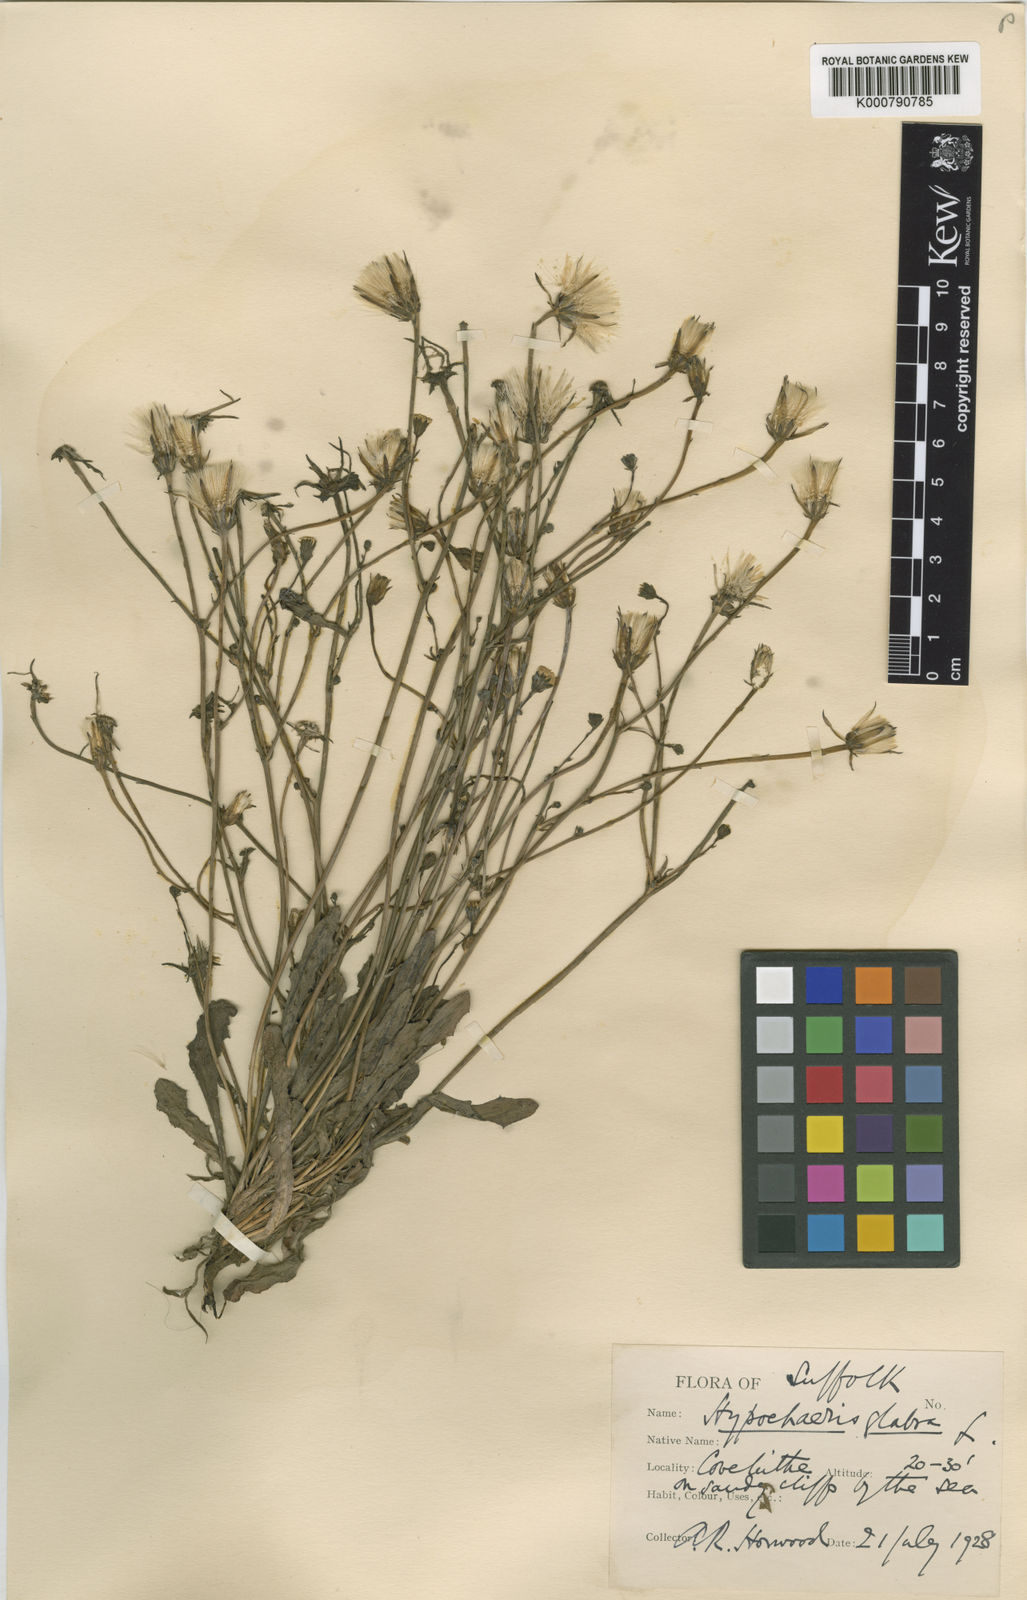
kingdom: Plantae
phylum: Tracheophyta
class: Magnoliopsida
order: Asterales
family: Asteraceae
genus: Hypochaeris
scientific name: Hypochaeris glabra
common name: Smooth catsear
